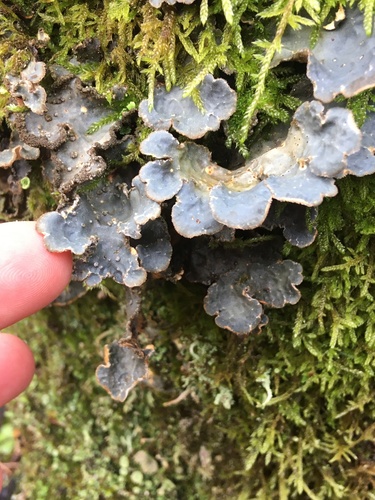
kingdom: Fungi
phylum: Ascomycota
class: Lecanoromycetes
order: Peltigerales
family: Lobariaceae
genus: Lobarina
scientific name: Lobarina scrobiculata
